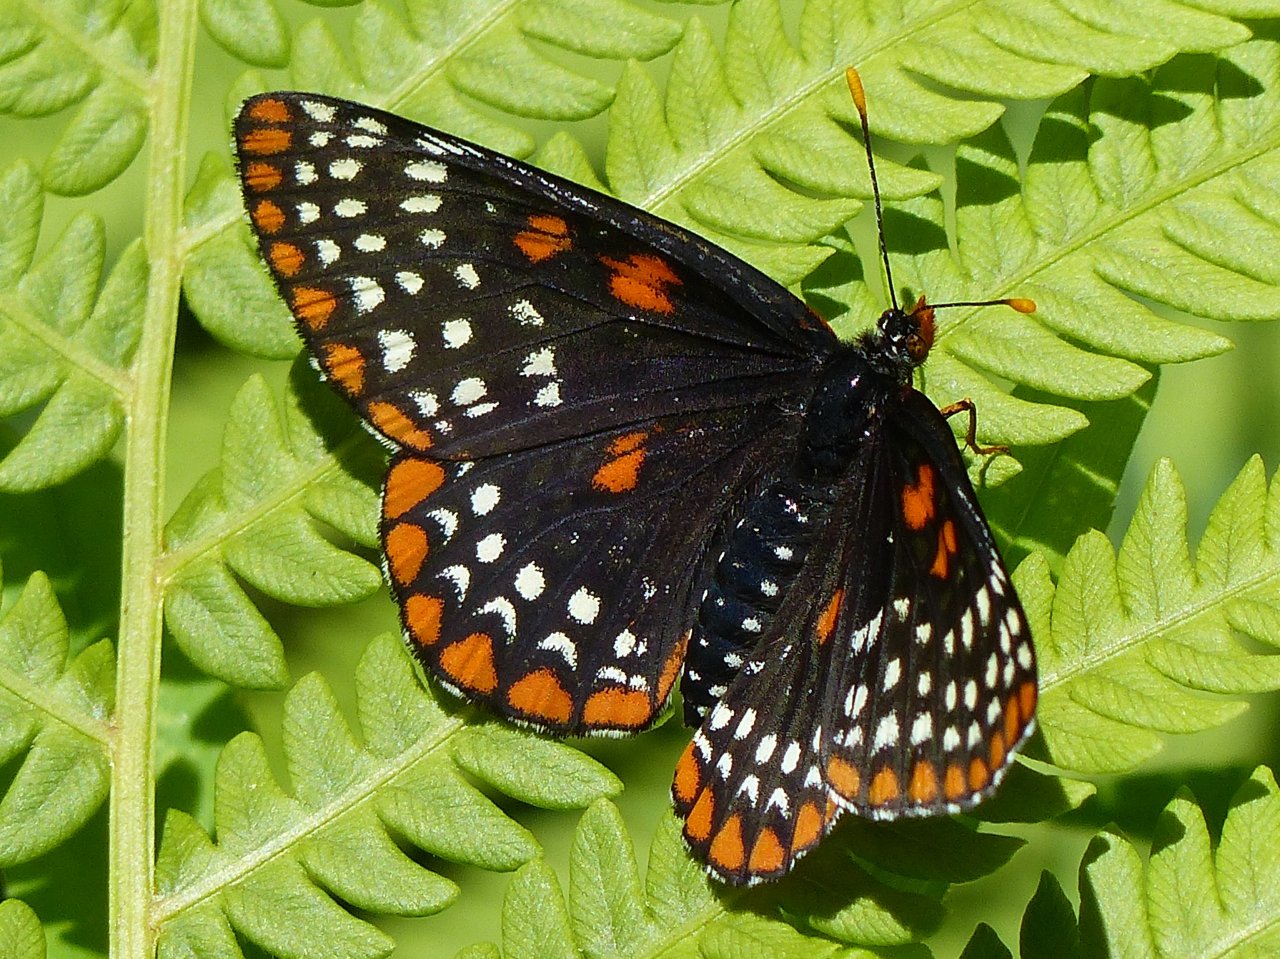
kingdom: Animalia
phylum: Arthropoda
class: Insecta
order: Lepidoptera
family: Nymphalidae
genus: Euphydryas
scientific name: Euphydryas phaeton
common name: Baltimore Checkerspot
